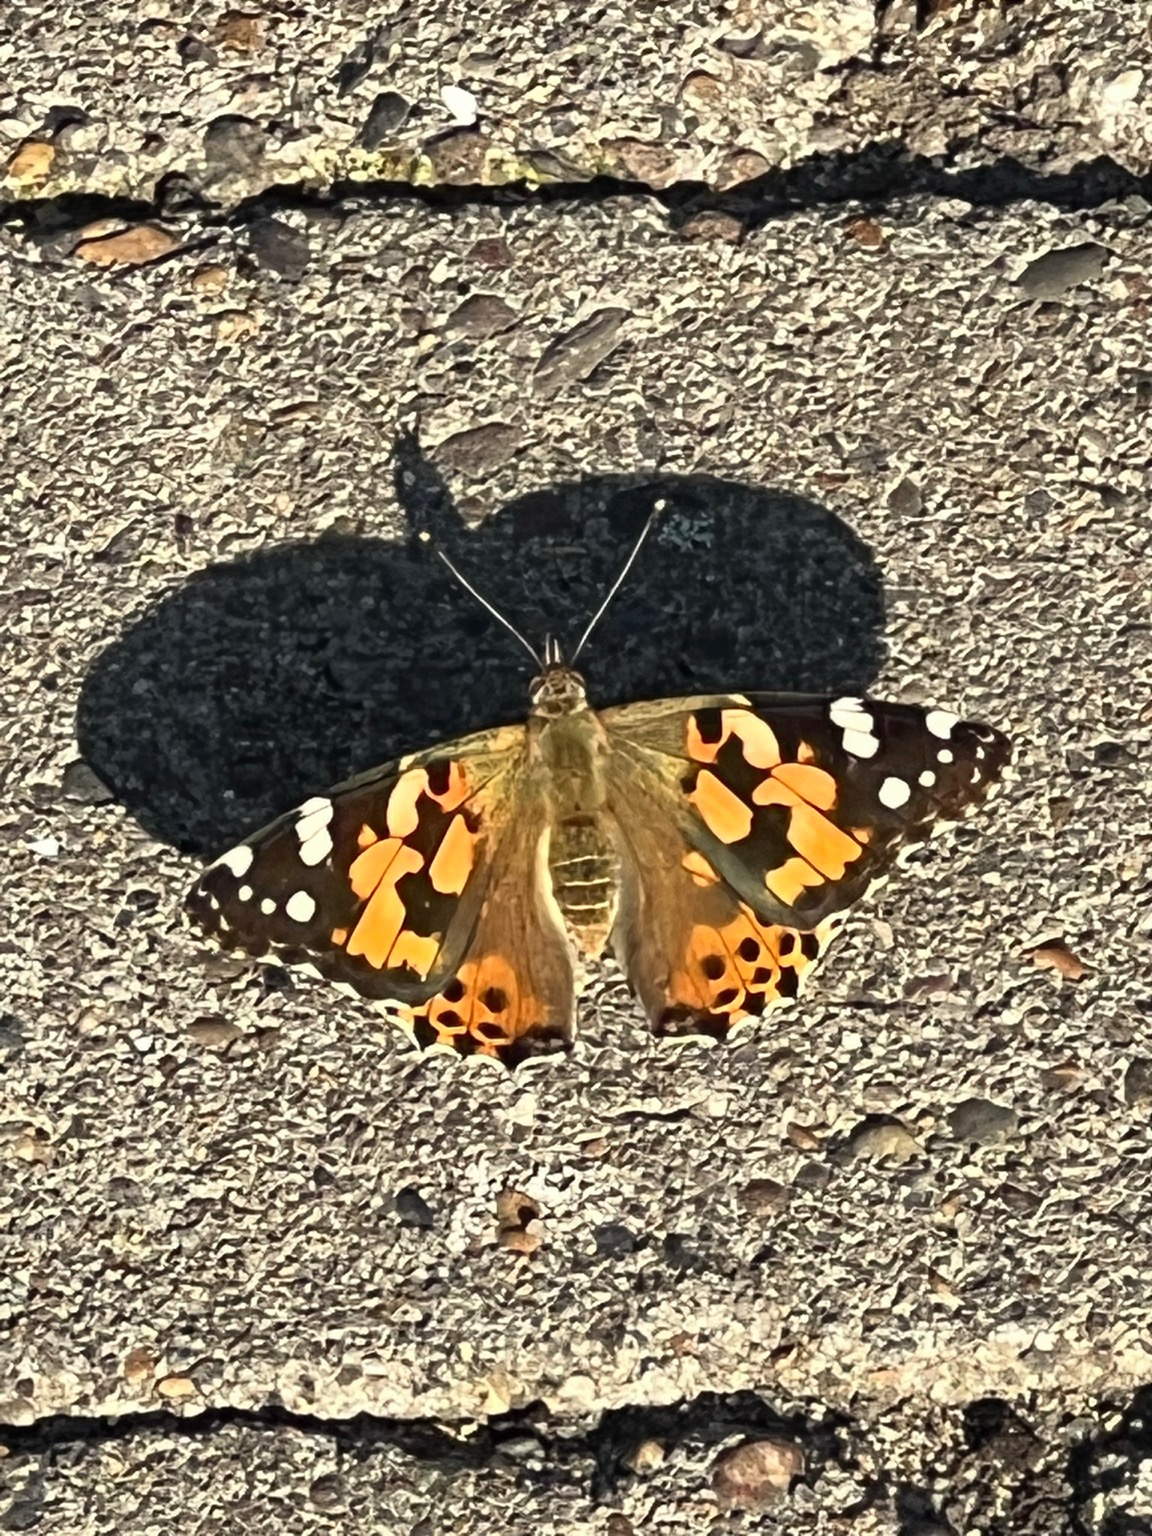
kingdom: Animalia
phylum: Arthropoda
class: Insecta
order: Lepidoptera
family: Nymphalidae
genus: Vanessa
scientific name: Vanessa cardui
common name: Tidselsommerfugl
